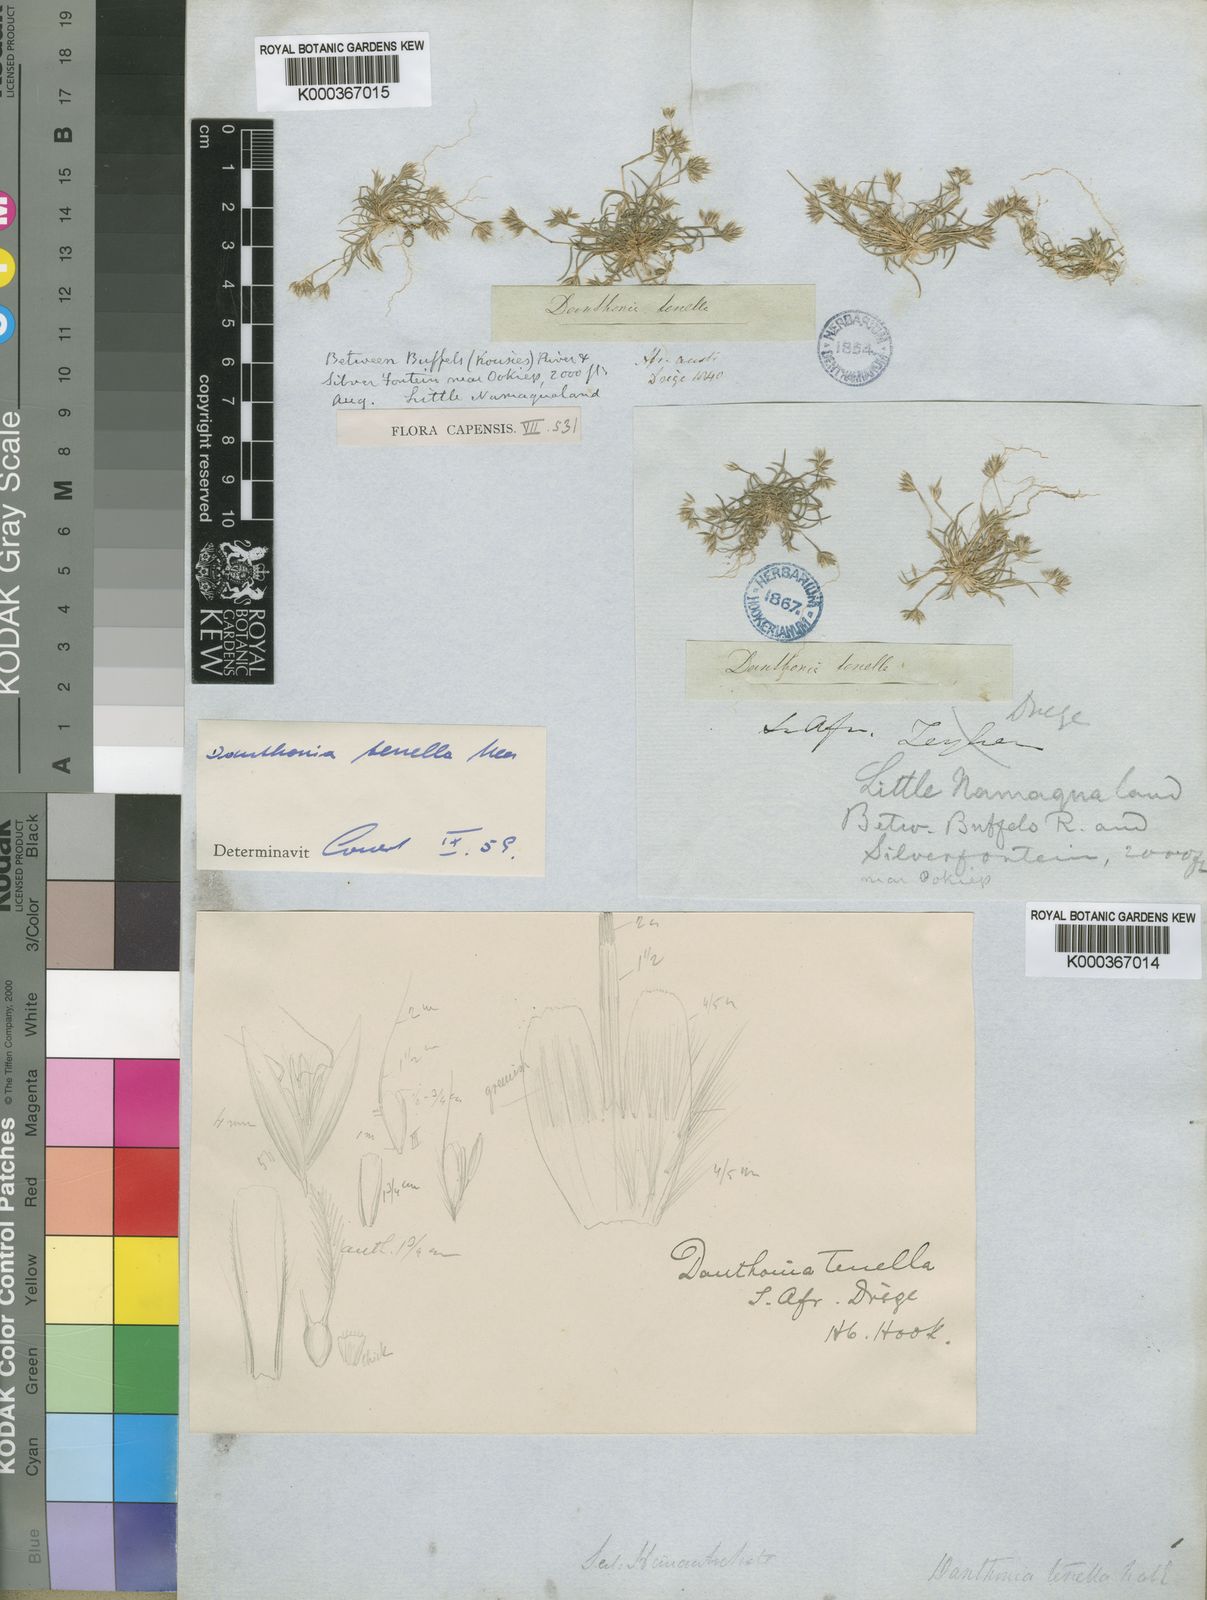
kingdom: Plantae
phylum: Tracheophyta
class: Liliopsida
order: Poales
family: Poaceae
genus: Rytidosperma
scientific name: Rytidosperma
